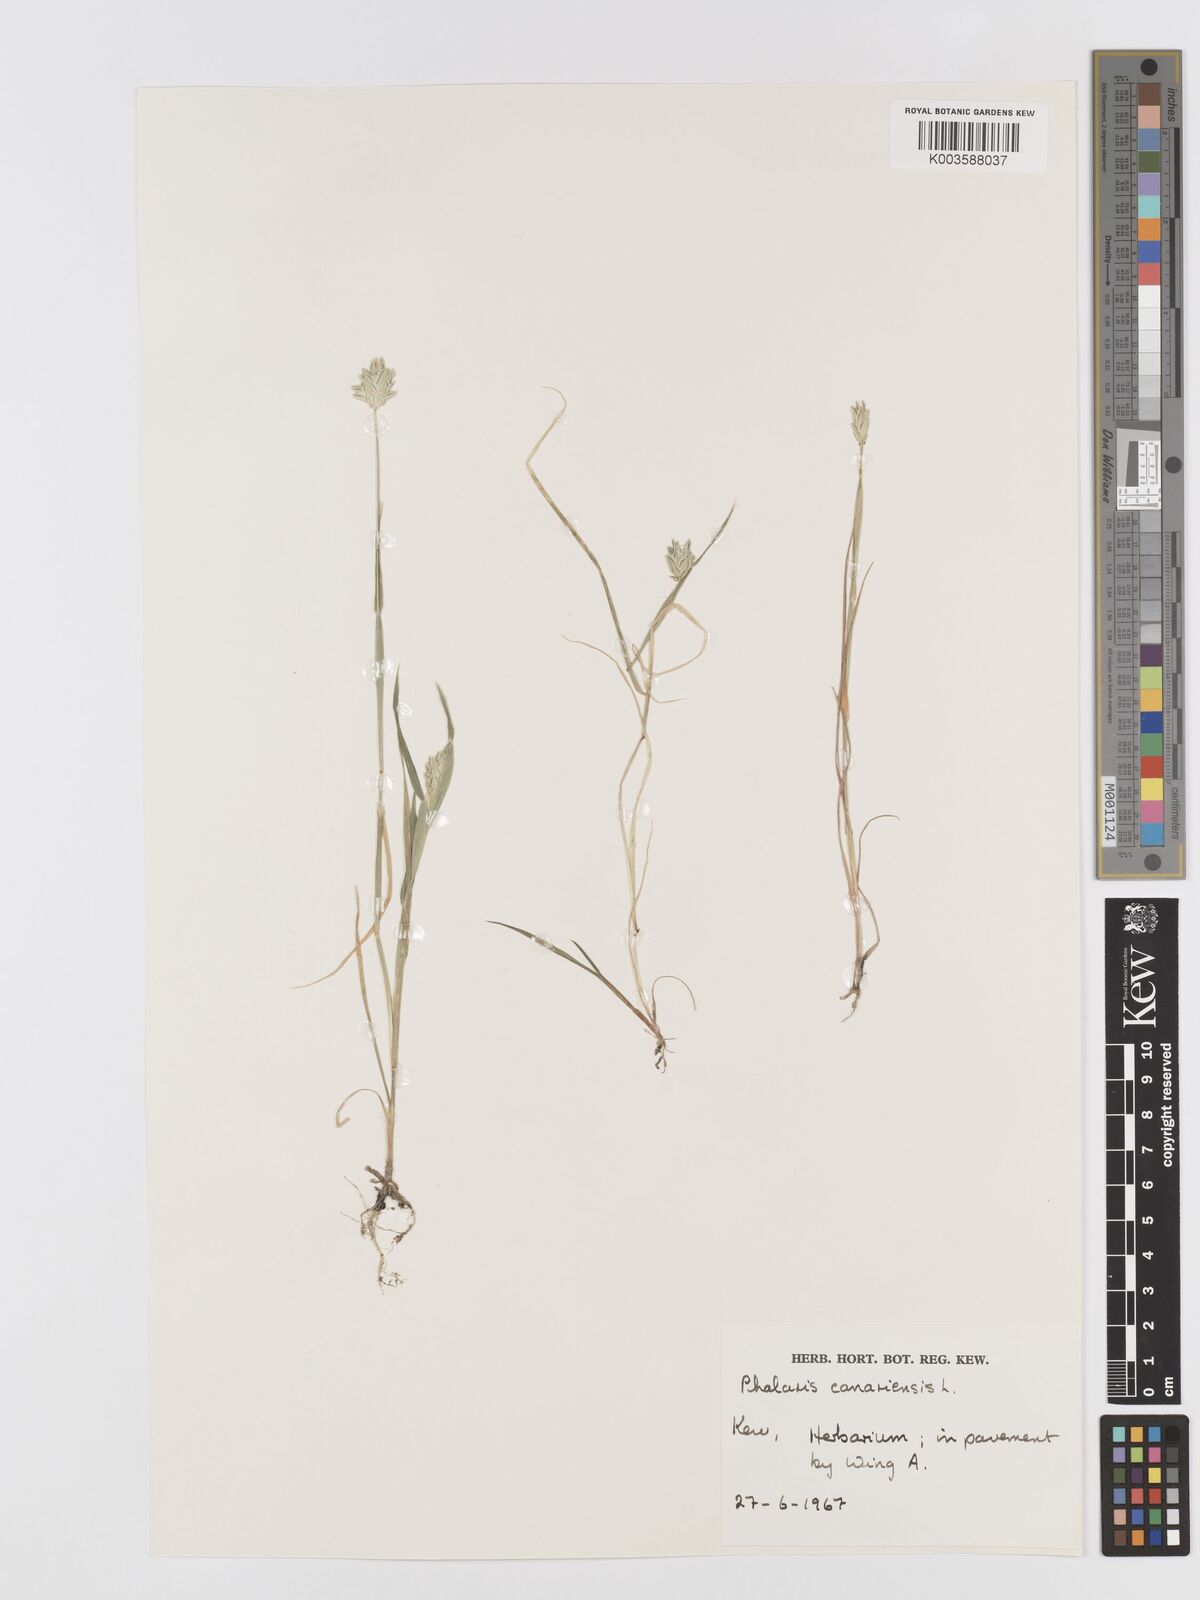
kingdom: Plantae
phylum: Tracheophyta
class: Liliopsida
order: Poales
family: Poaceae
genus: Phalaris
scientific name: Phalaris canariensis
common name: Annual canarygrass
